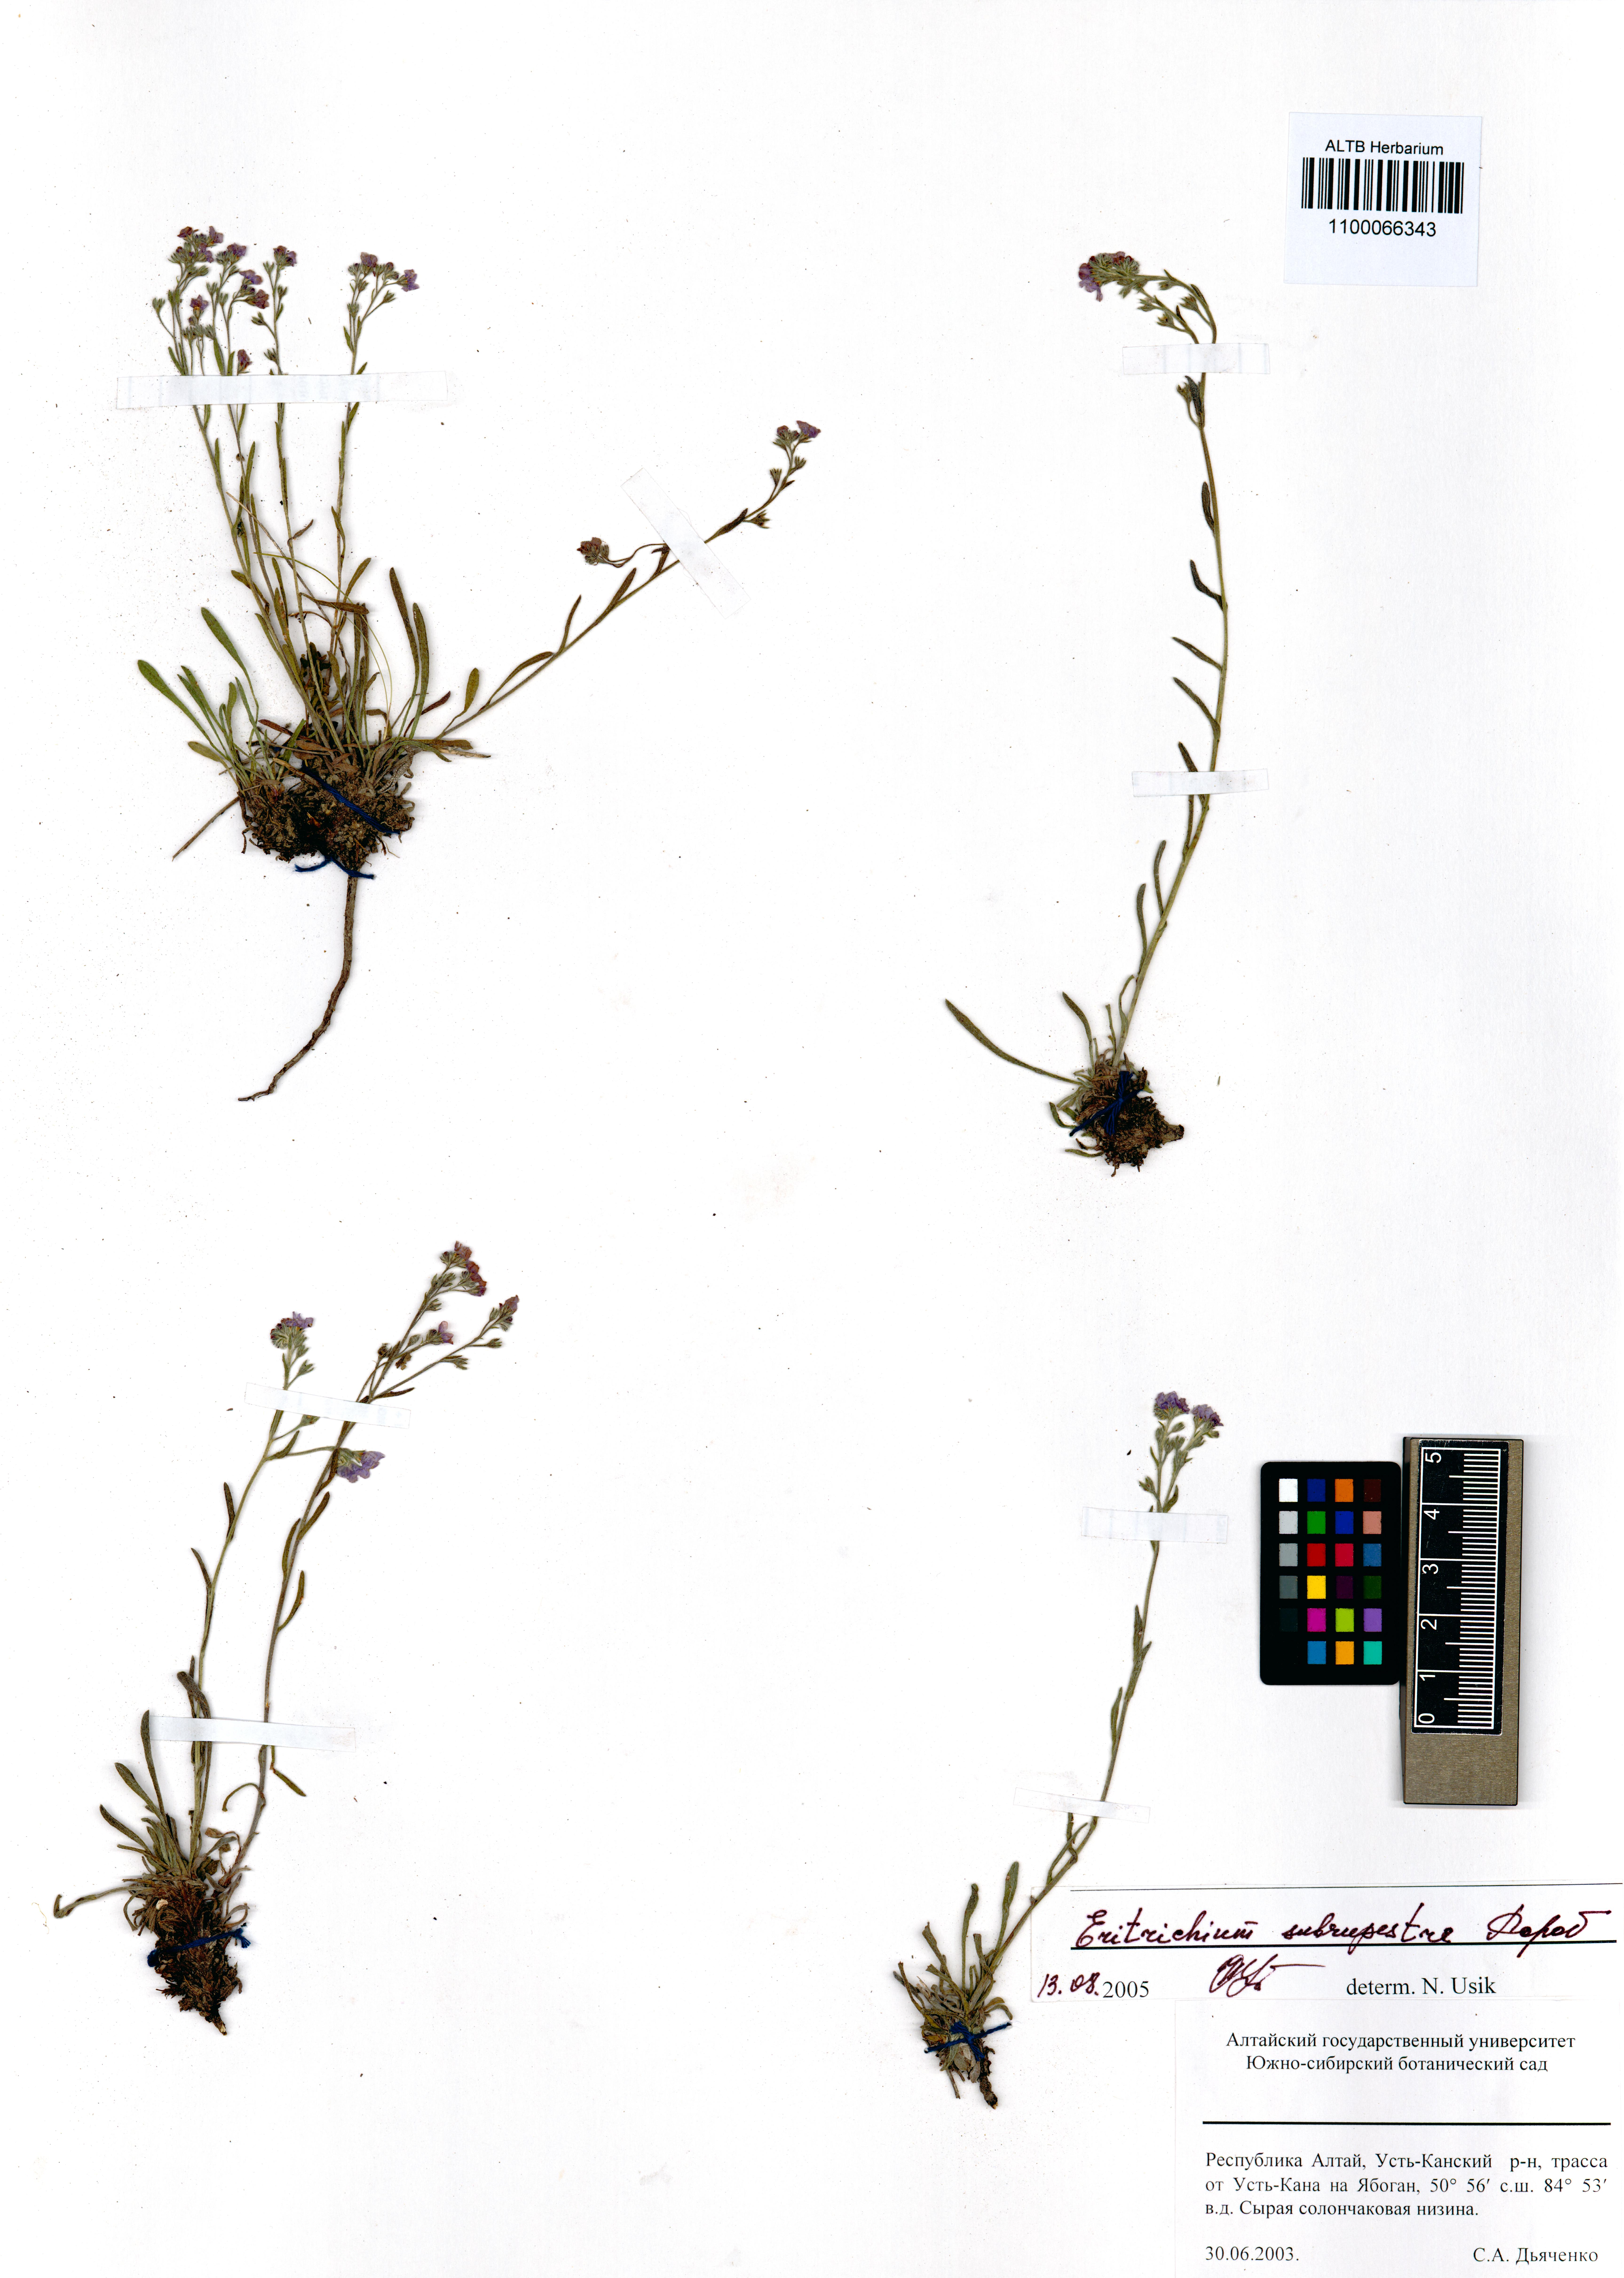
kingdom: Plantae
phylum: Tracheophyta
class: Magnoliopsida
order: Boraginales
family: Boraginaceae
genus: Eritrichium
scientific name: Eritrichium pauciflorum
